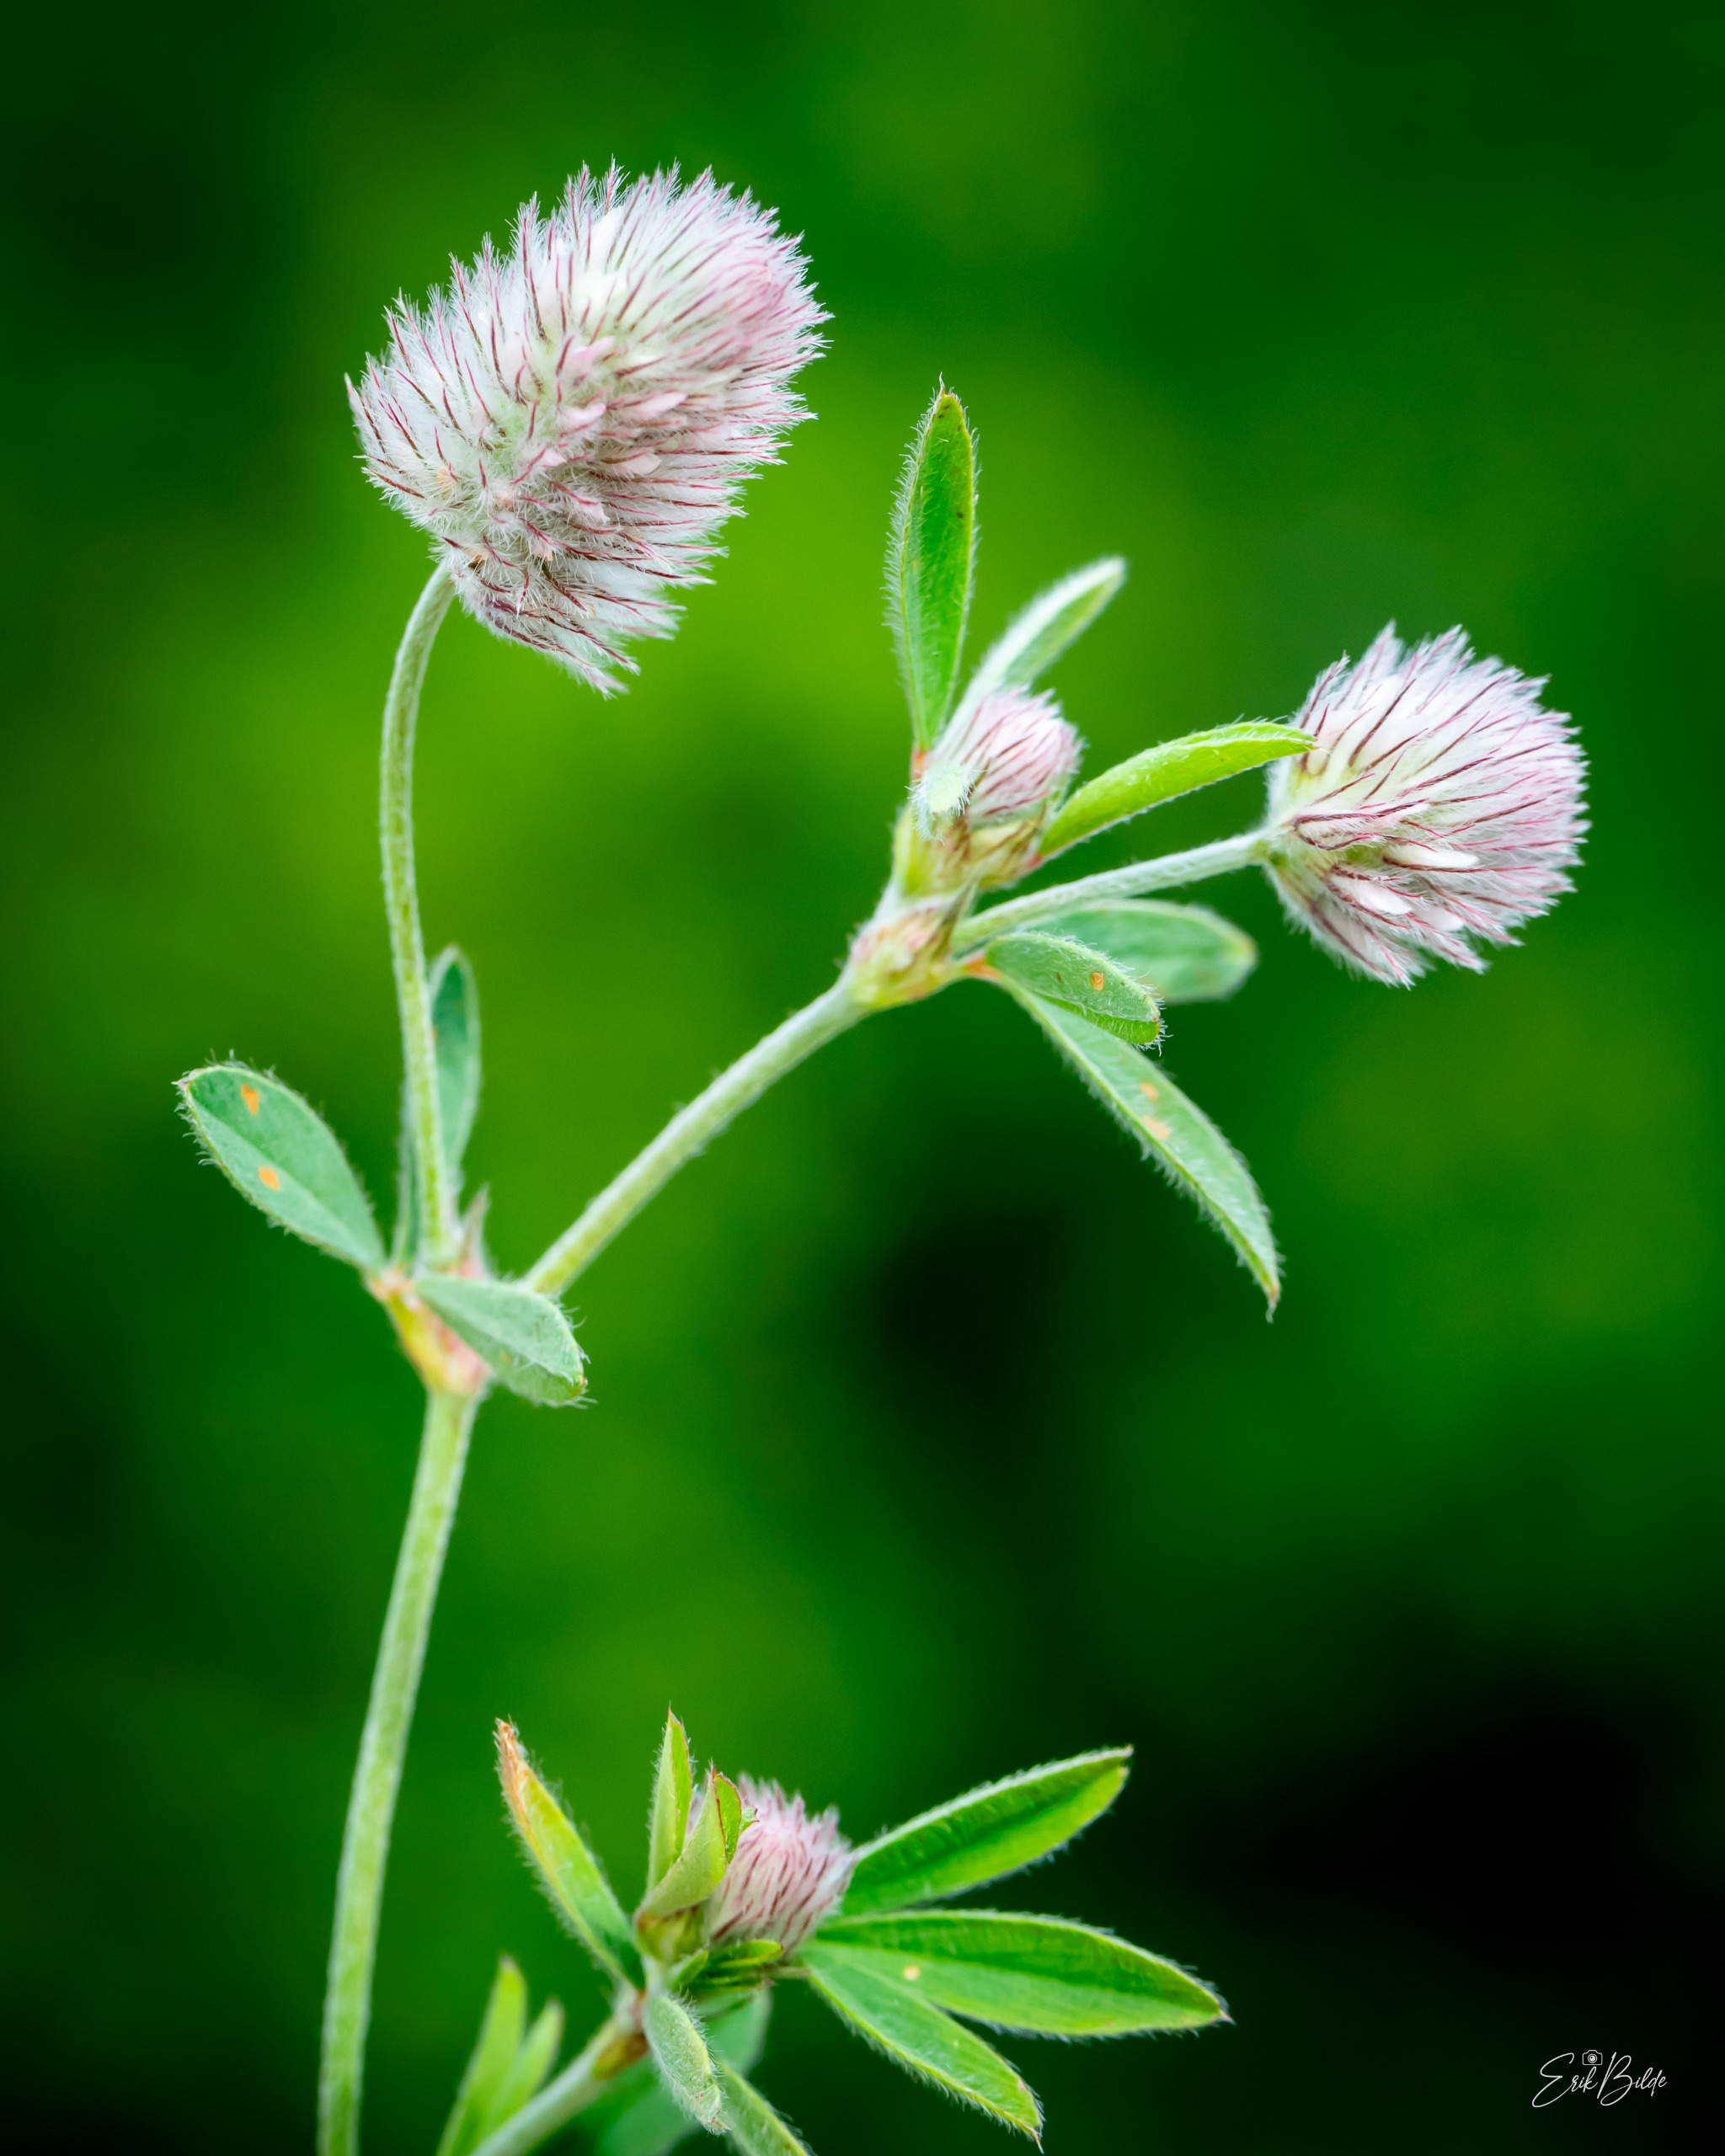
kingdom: Plantae
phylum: Tracheophyta
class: Magnoliopsida
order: Fabales
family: Fabaceae
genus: Trifolium
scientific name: Trifolium arvense
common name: Hare-kløver
